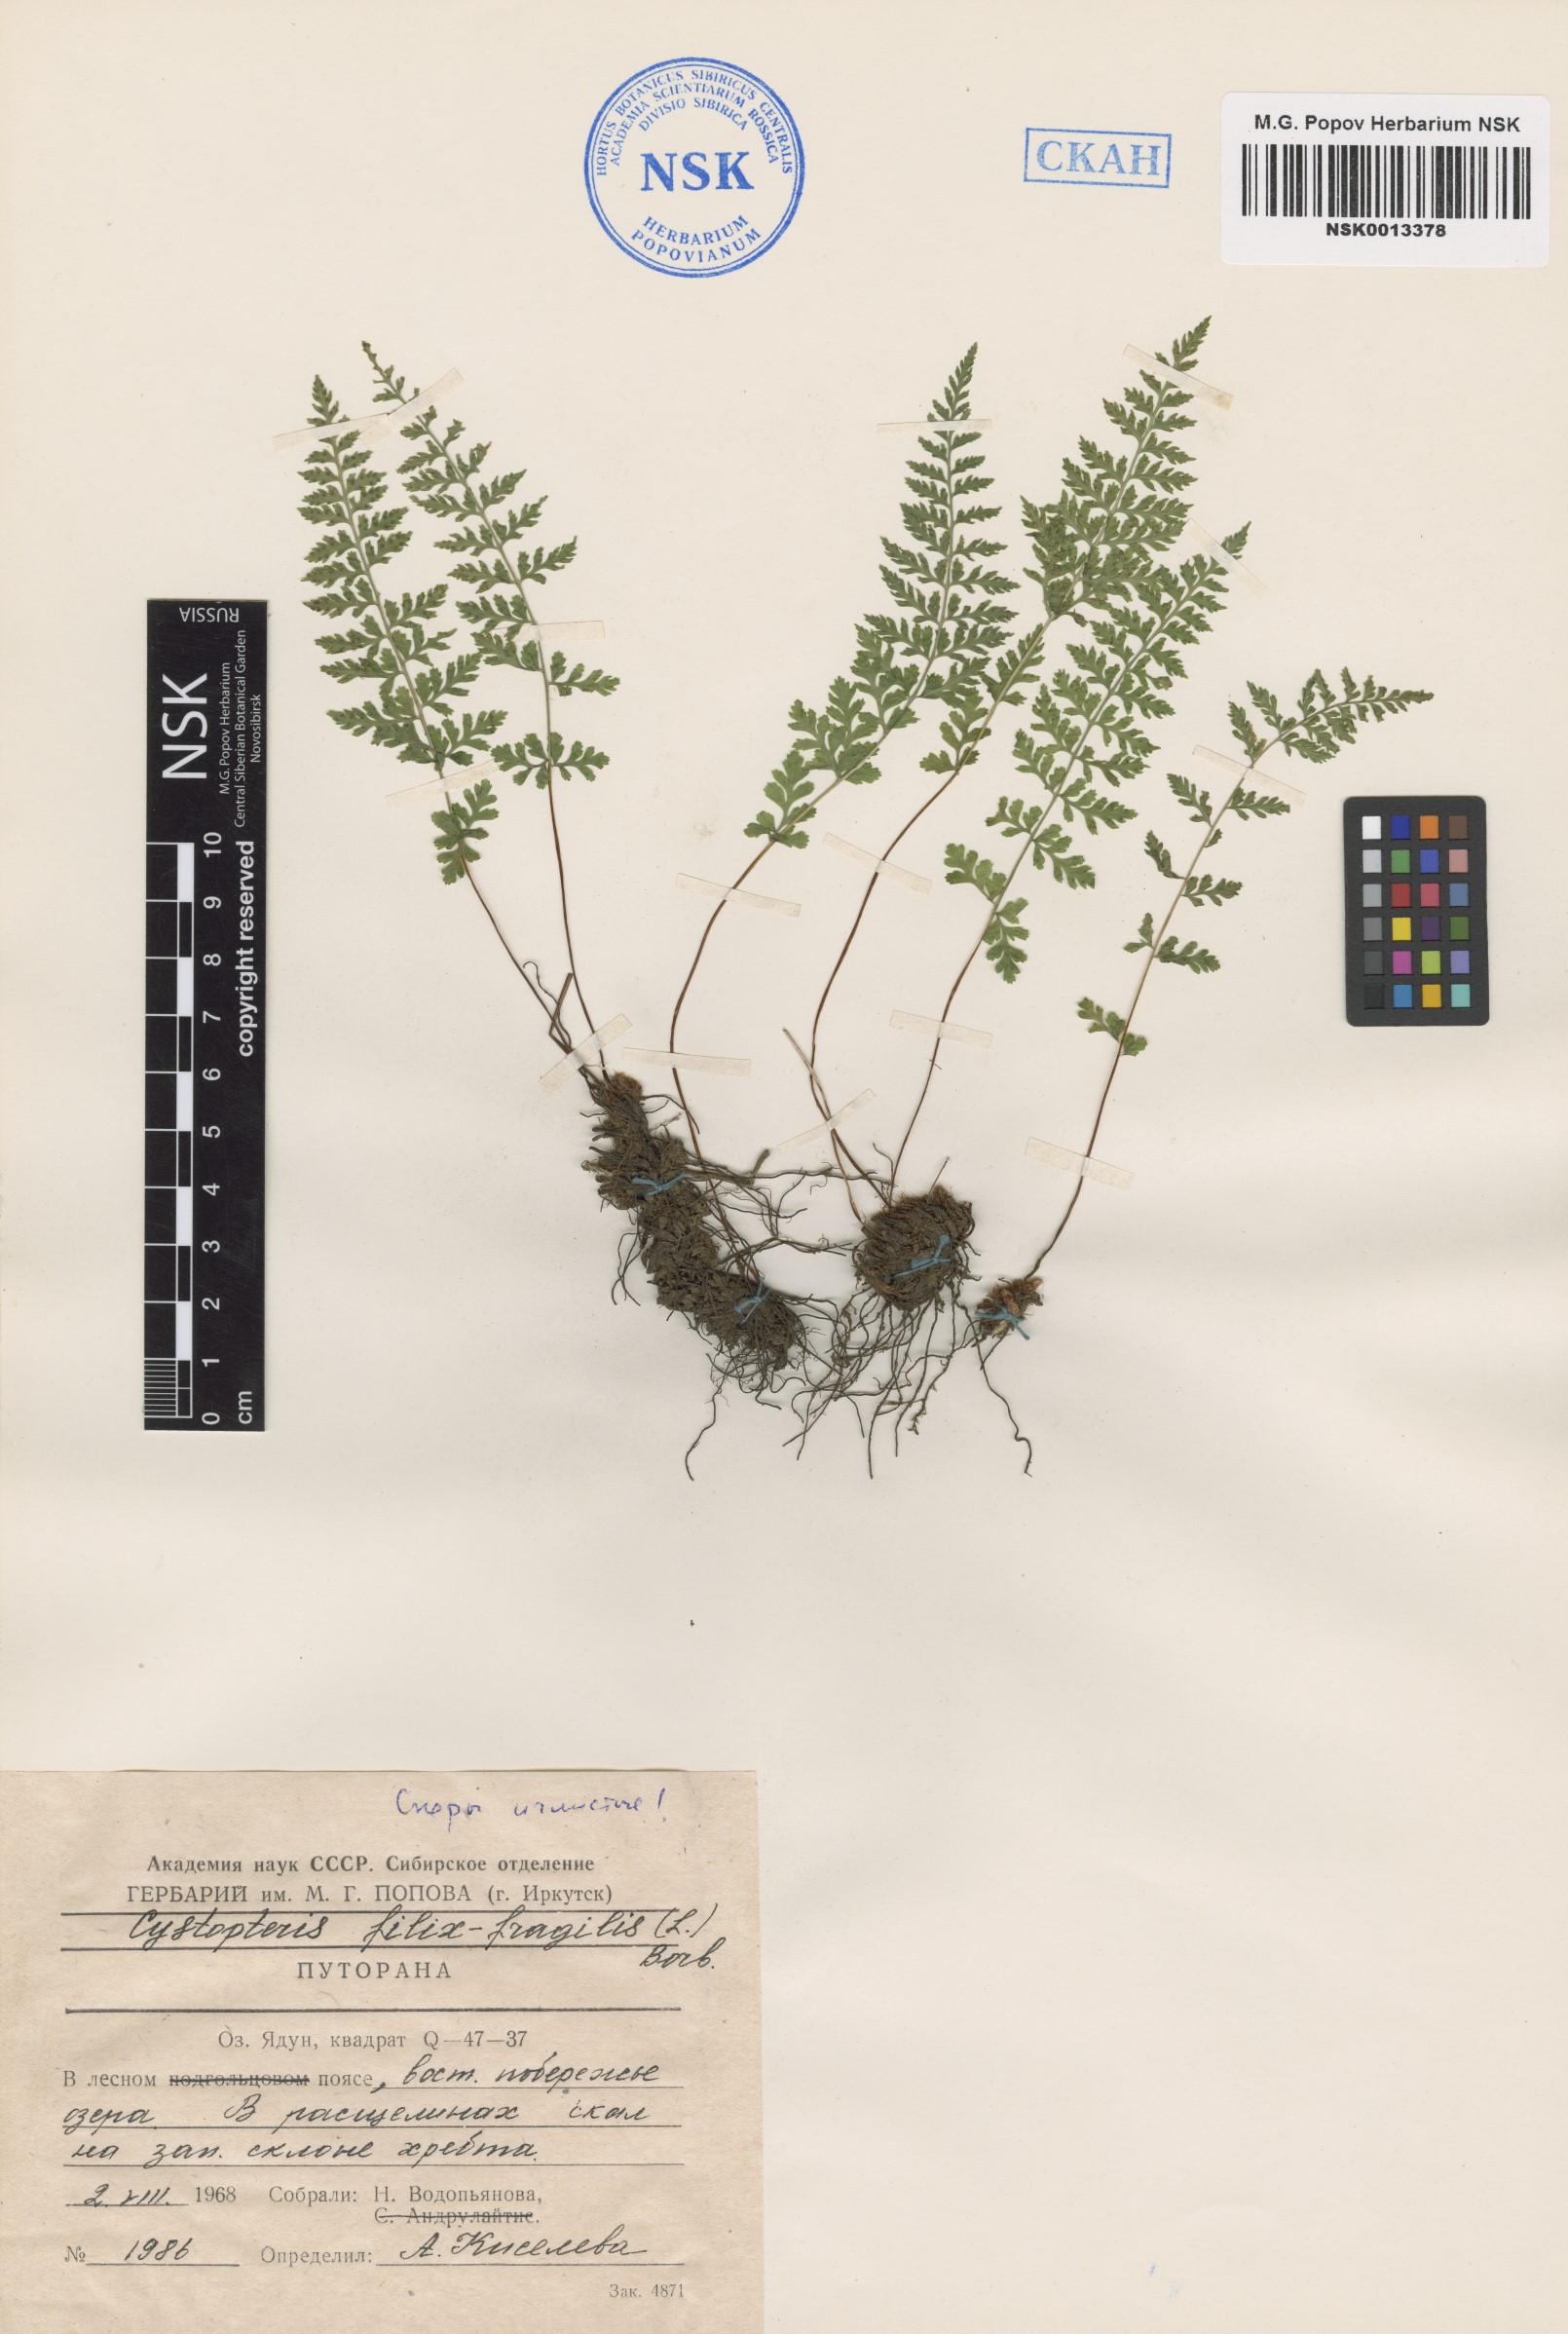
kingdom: Plantae
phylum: Tracheophyta
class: Polypodiopsida
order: Polypodiales
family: Cystopteridaceae
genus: Cystopteris
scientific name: Cystopteris fragilis
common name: Brittle bladder fern
